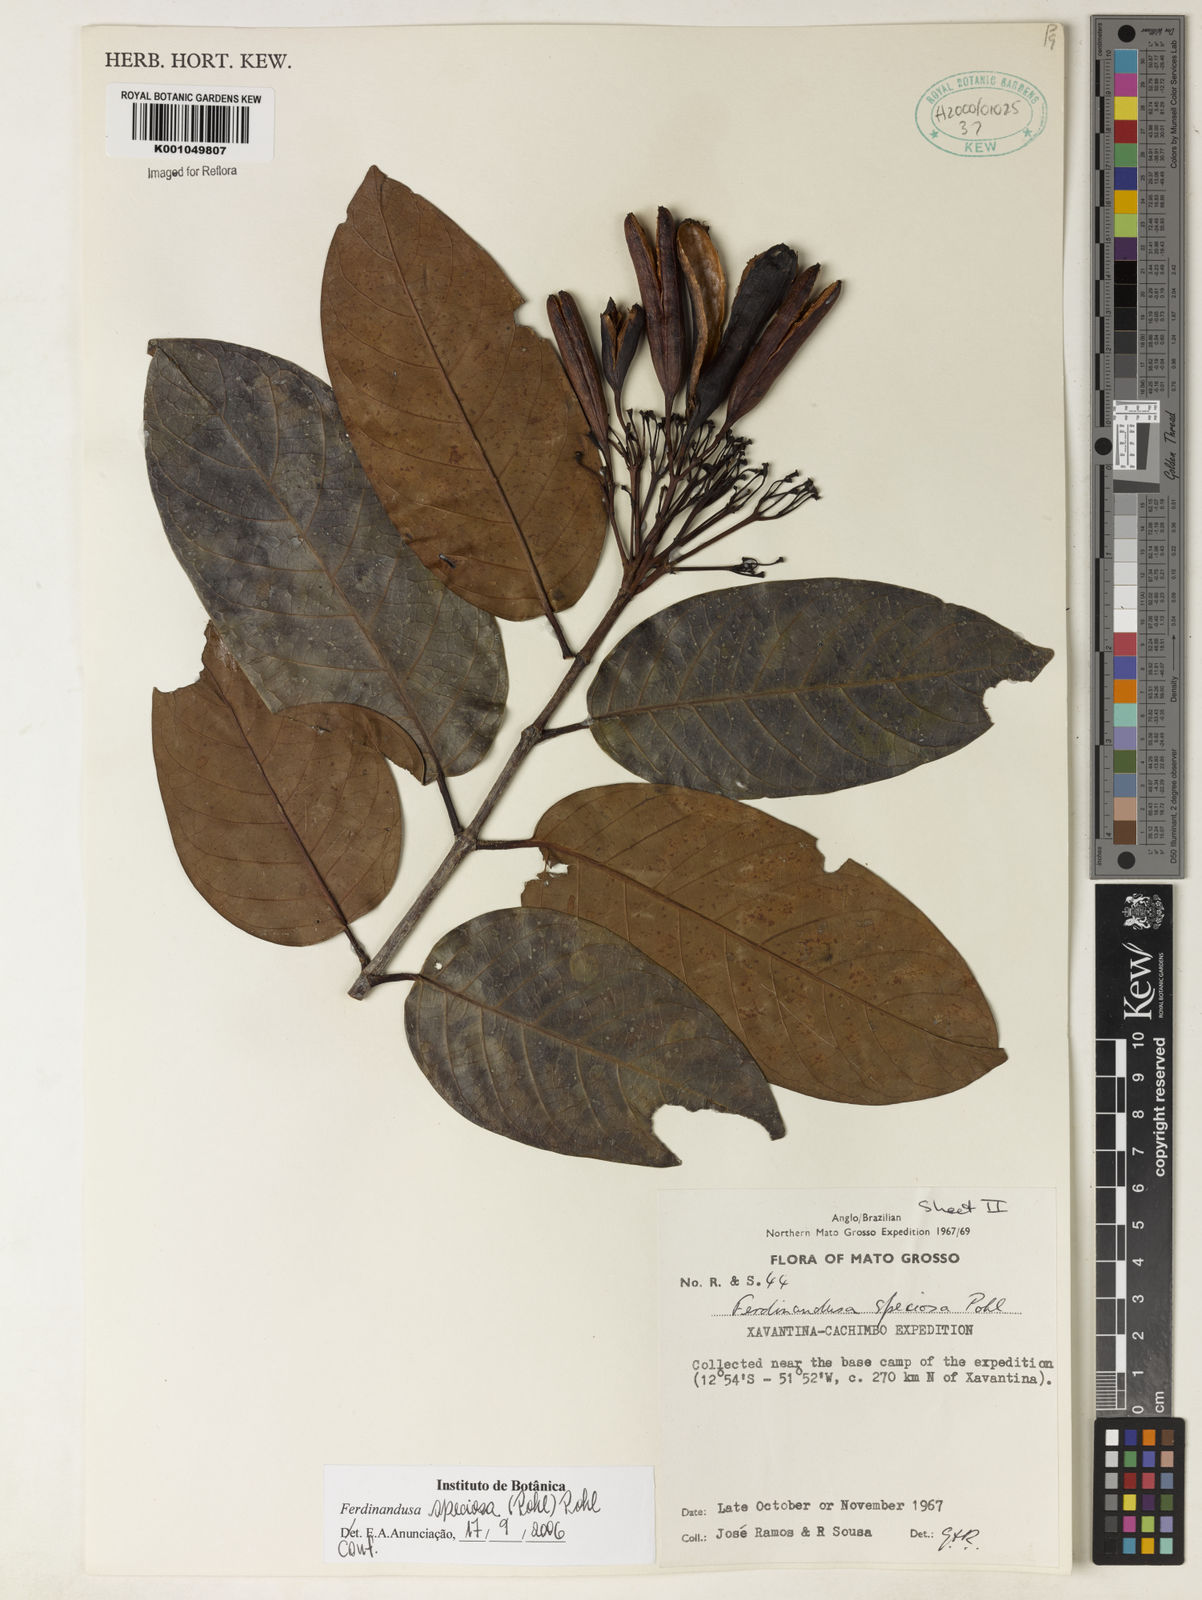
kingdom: Plantae
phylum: Tracheophyta
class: Magnoliopsida
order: Gentianales
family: Rubiaceae
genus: Ferdinandusa
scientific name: Ferdinandusa speciosa
